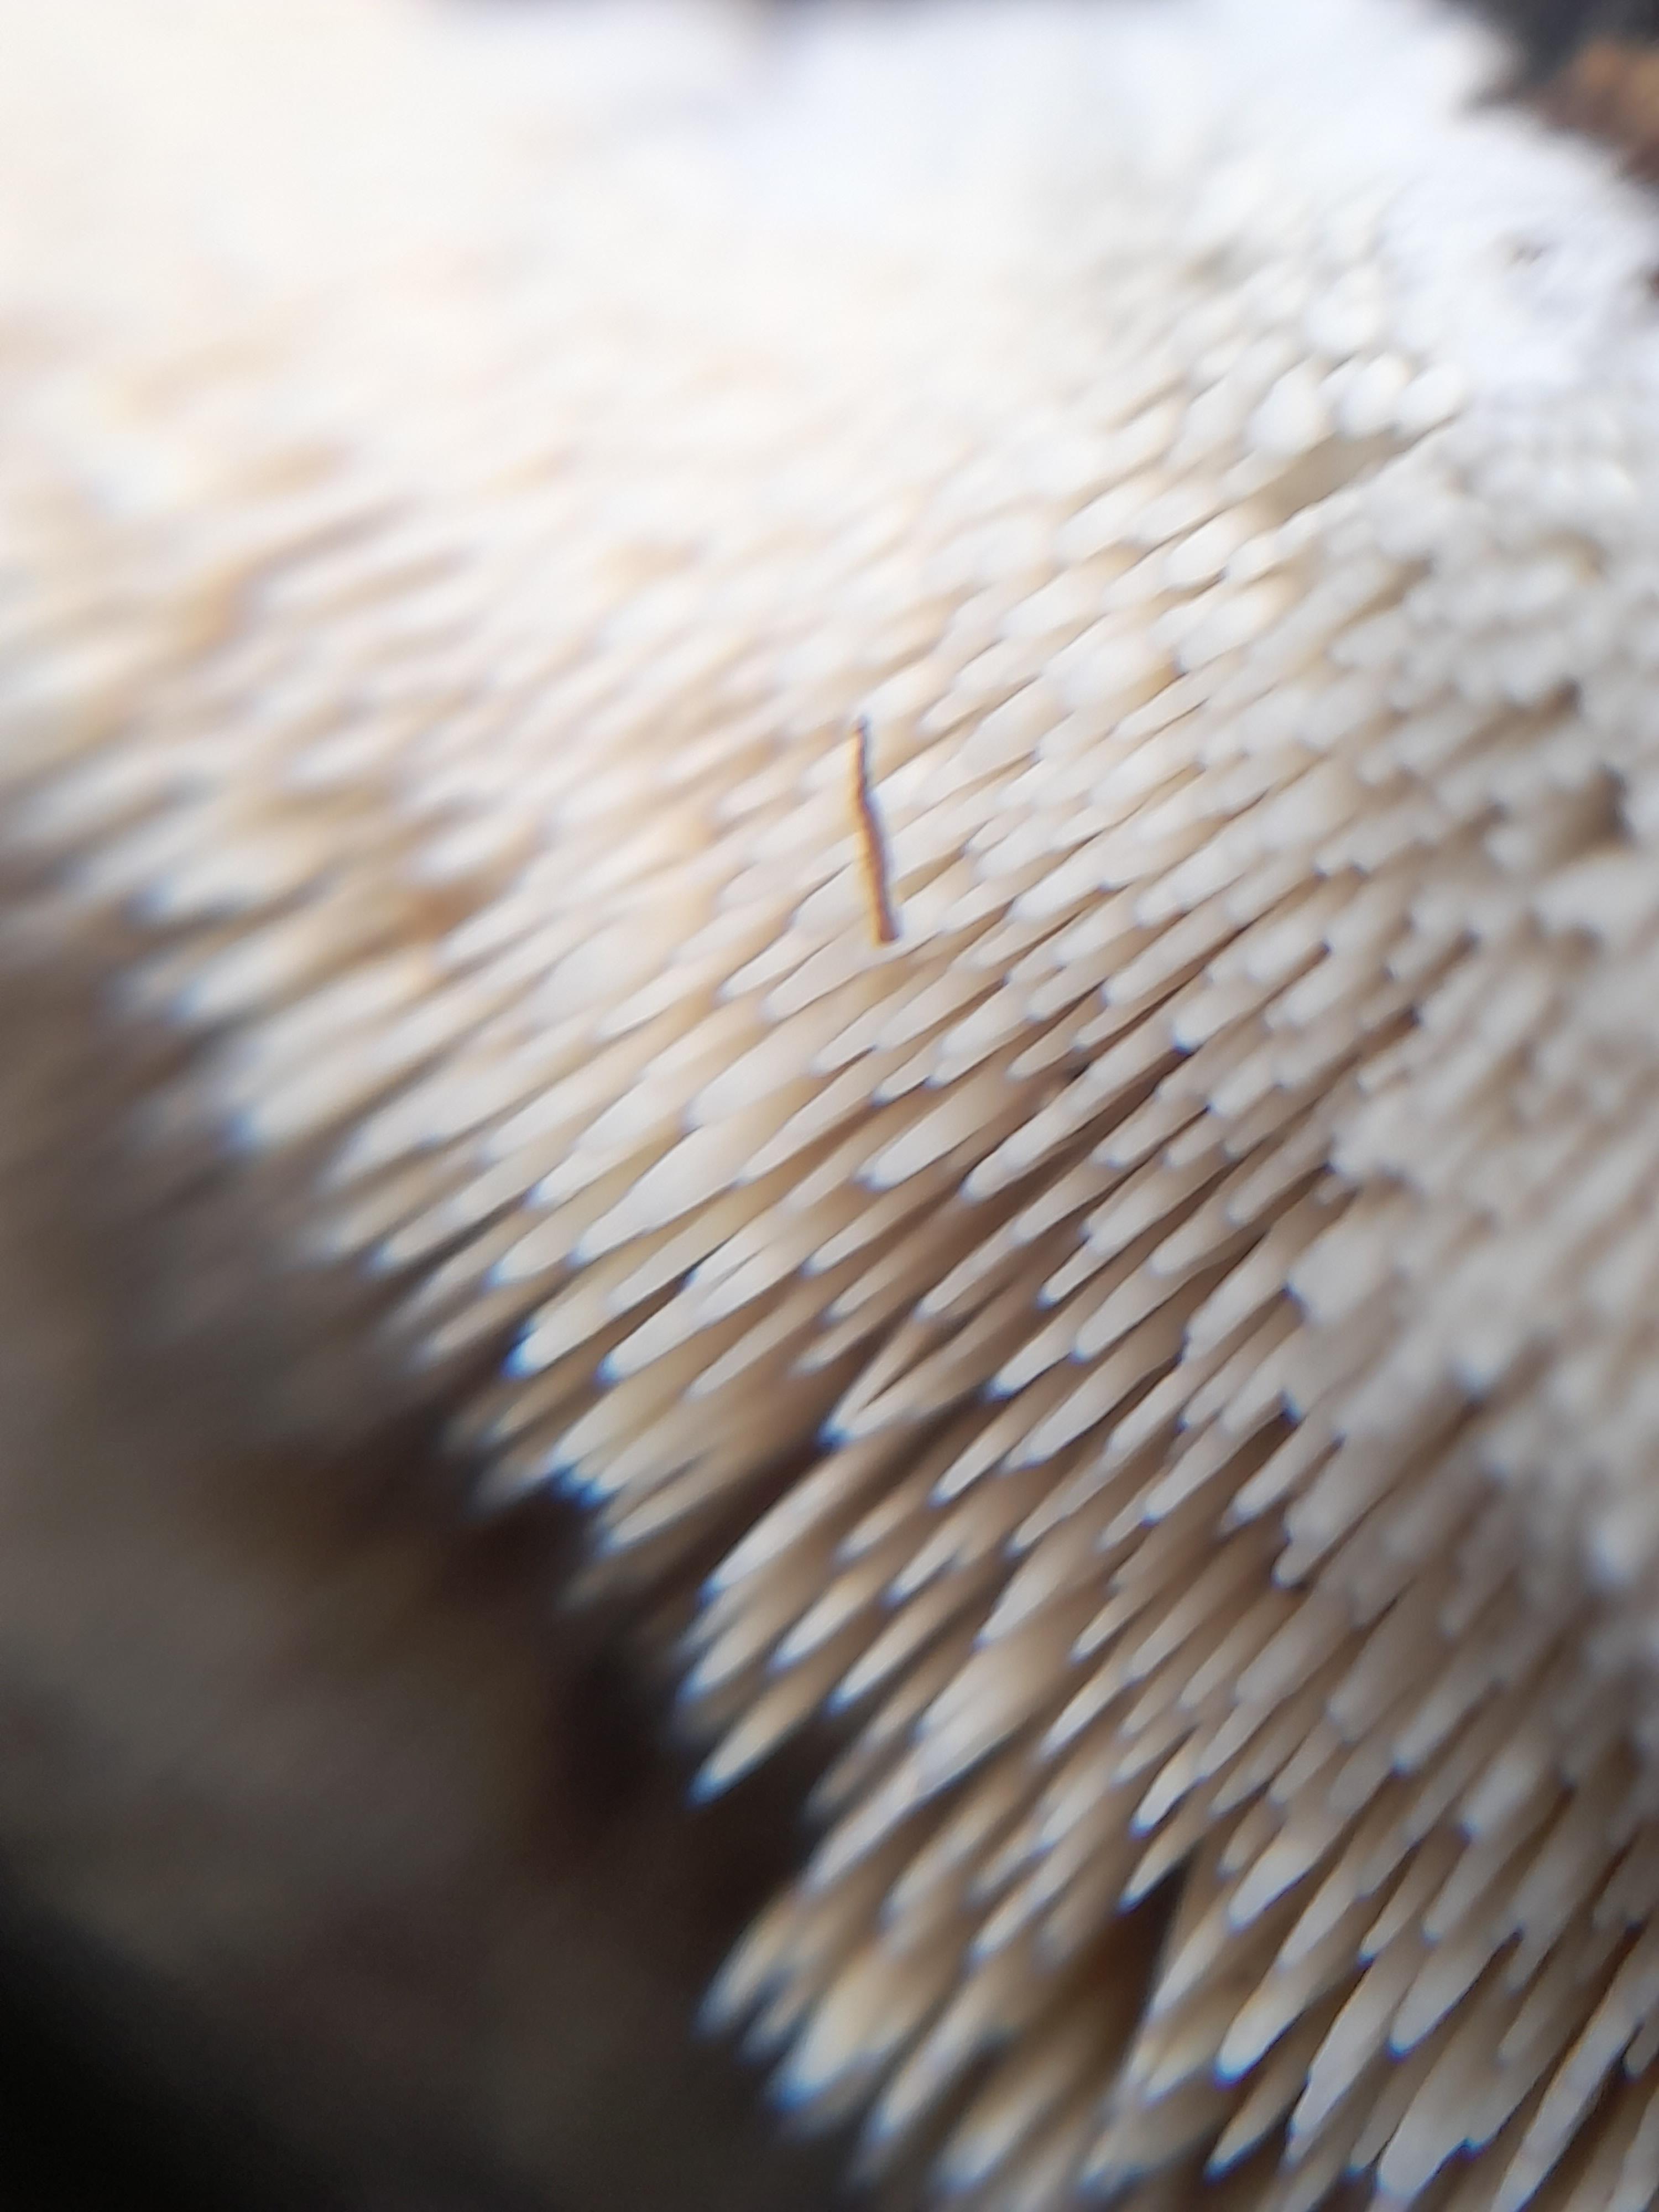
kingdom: Fungi
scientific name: Fungi
